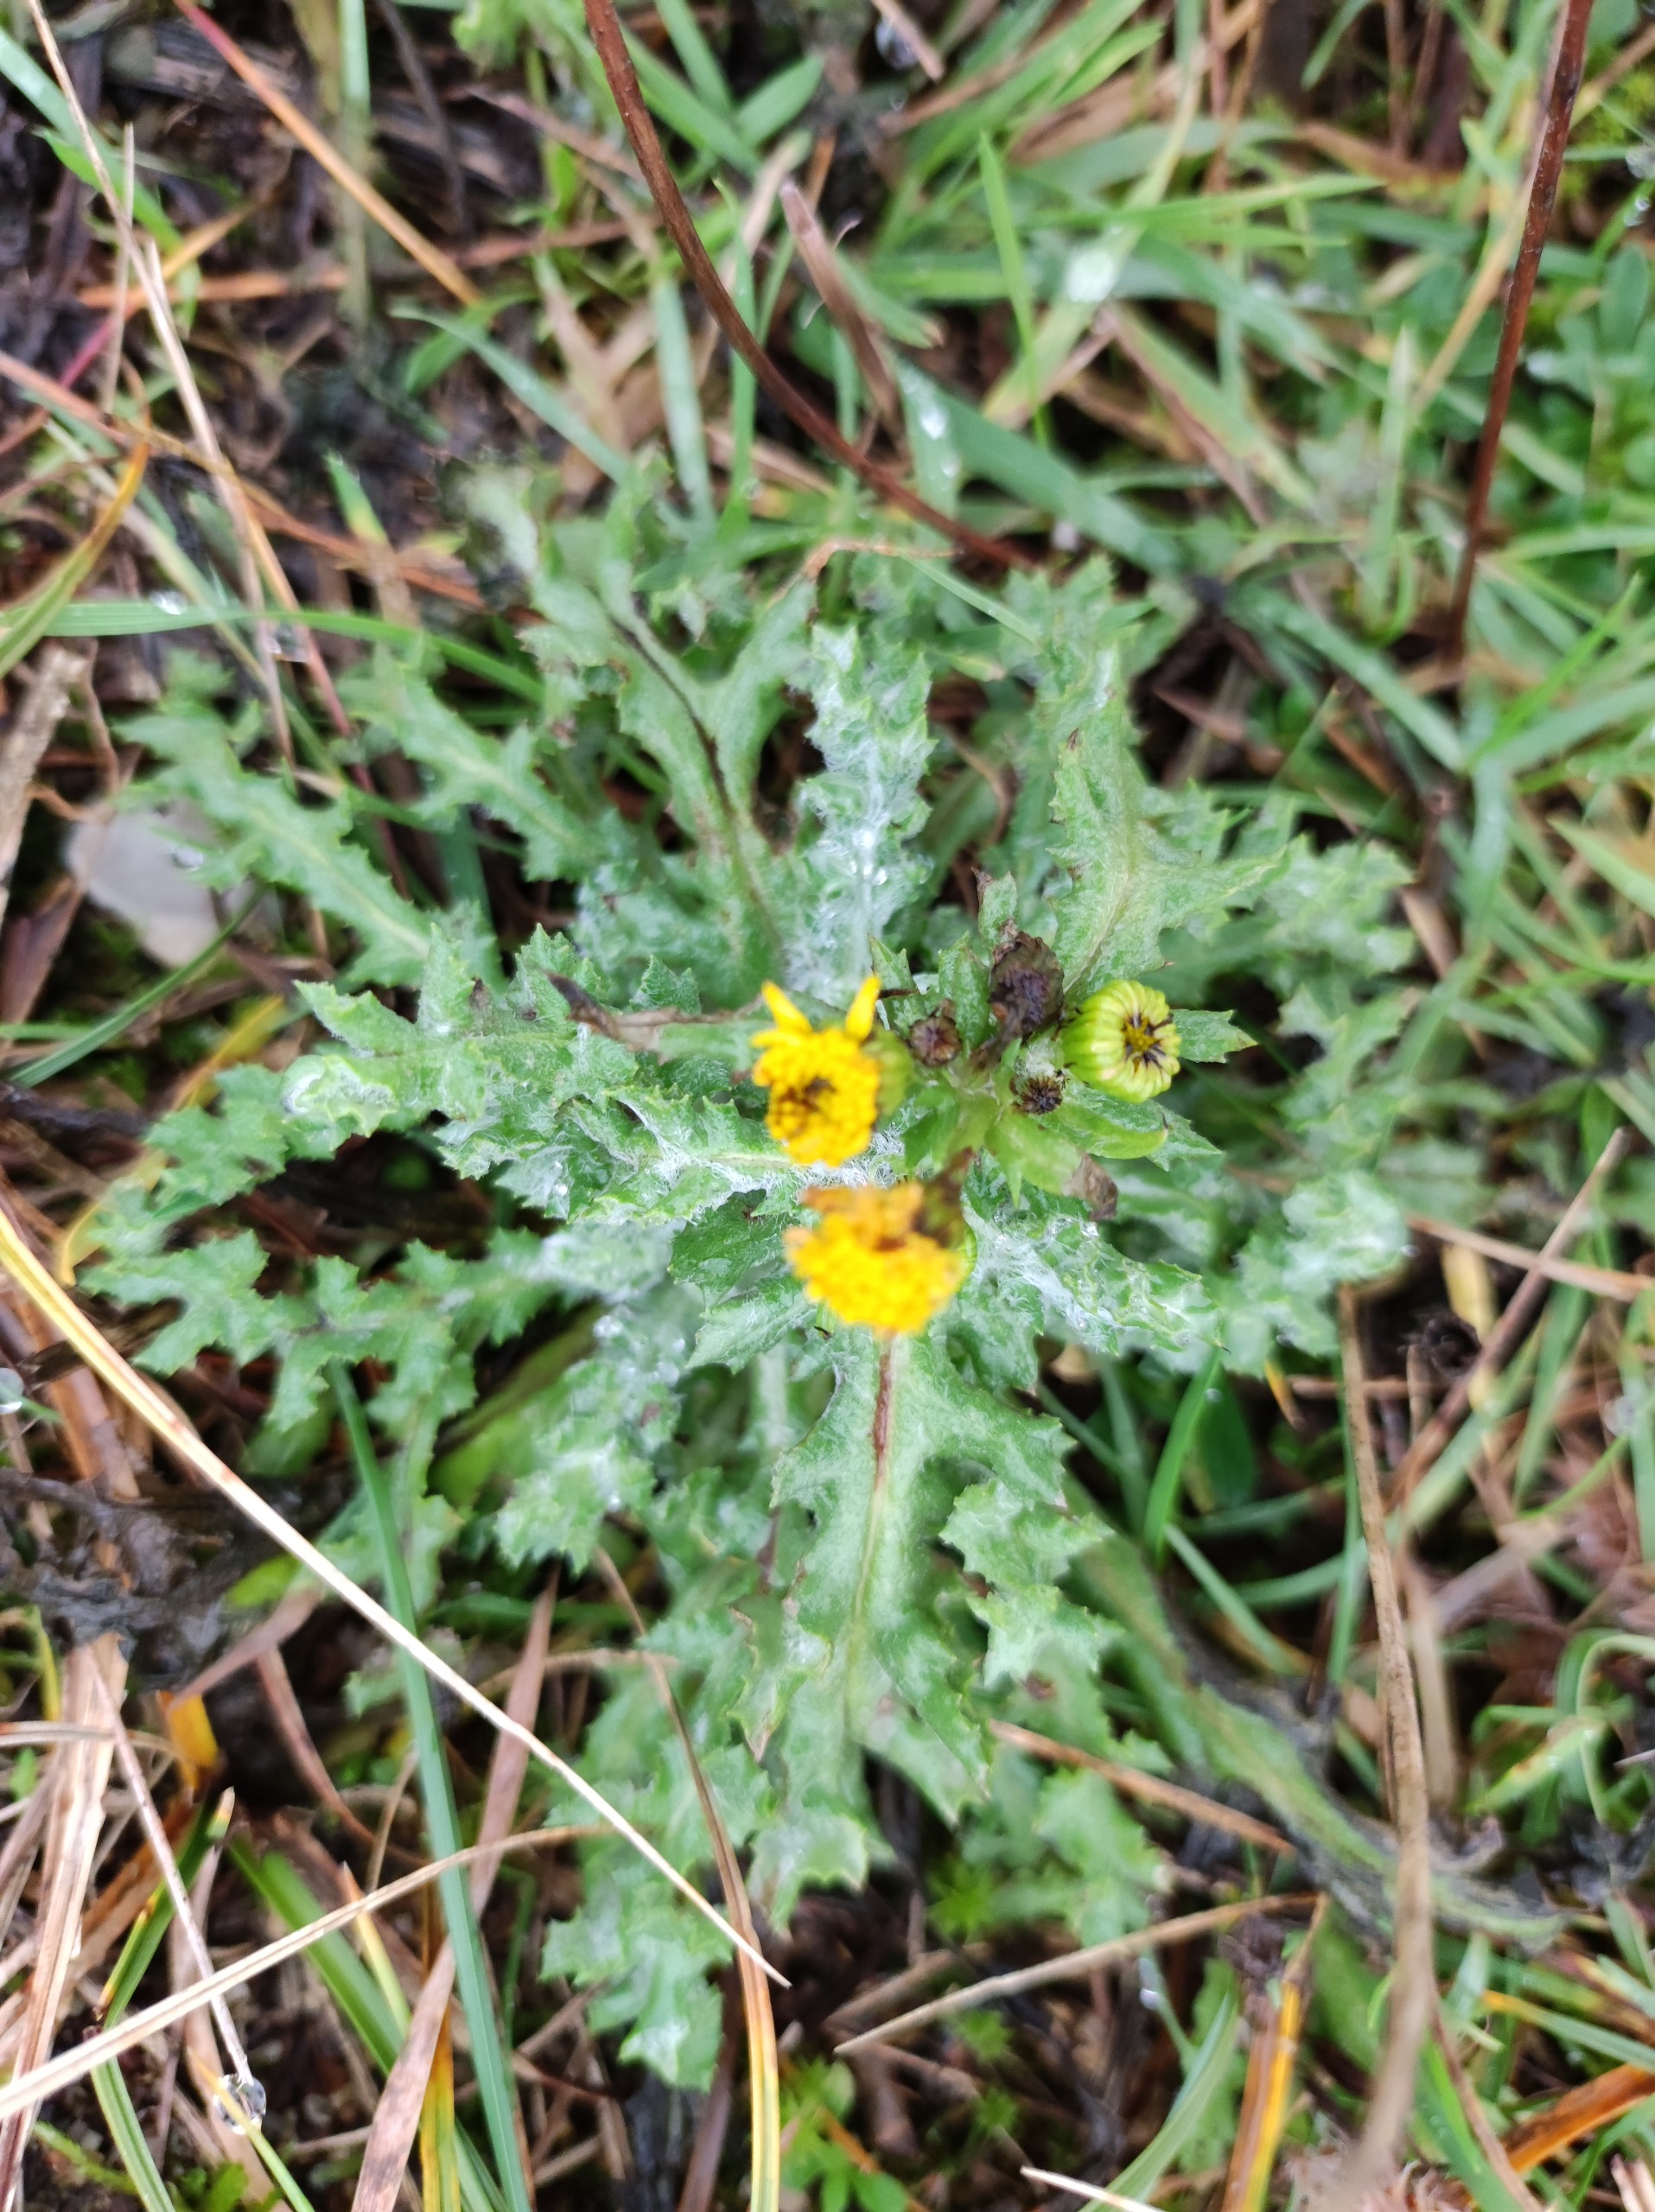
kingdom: Plantae
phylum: Tracheophyta
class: Magnoliopsida
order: Asterales
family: Asteraceae
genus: Senecio
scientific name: Senecio vulgaris
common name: Almindelig brandbæger
